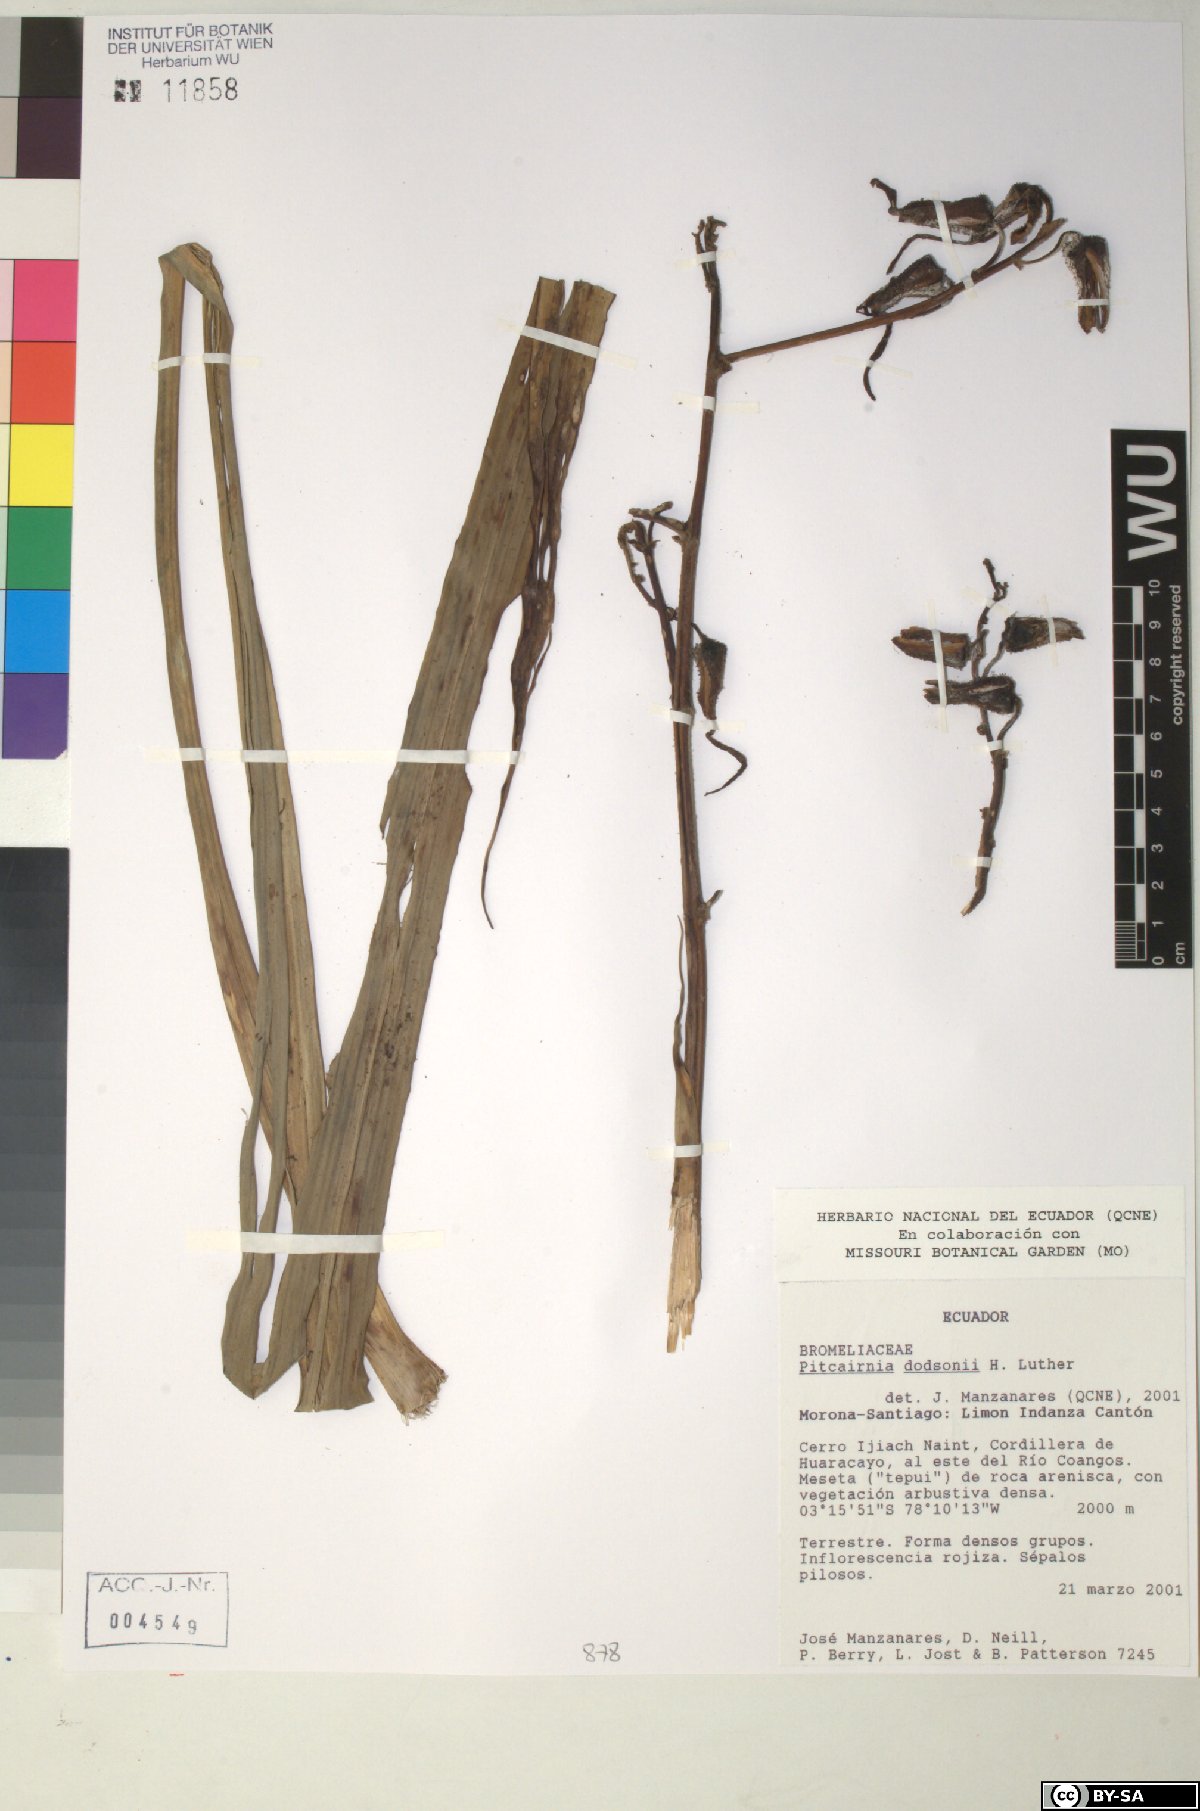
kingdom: Plantae
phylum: Tracheophyta
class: Liliopsida
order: Poales
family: Bromeliaceae
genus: Pitcairnia
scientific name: Pitcairnia dodsonii
